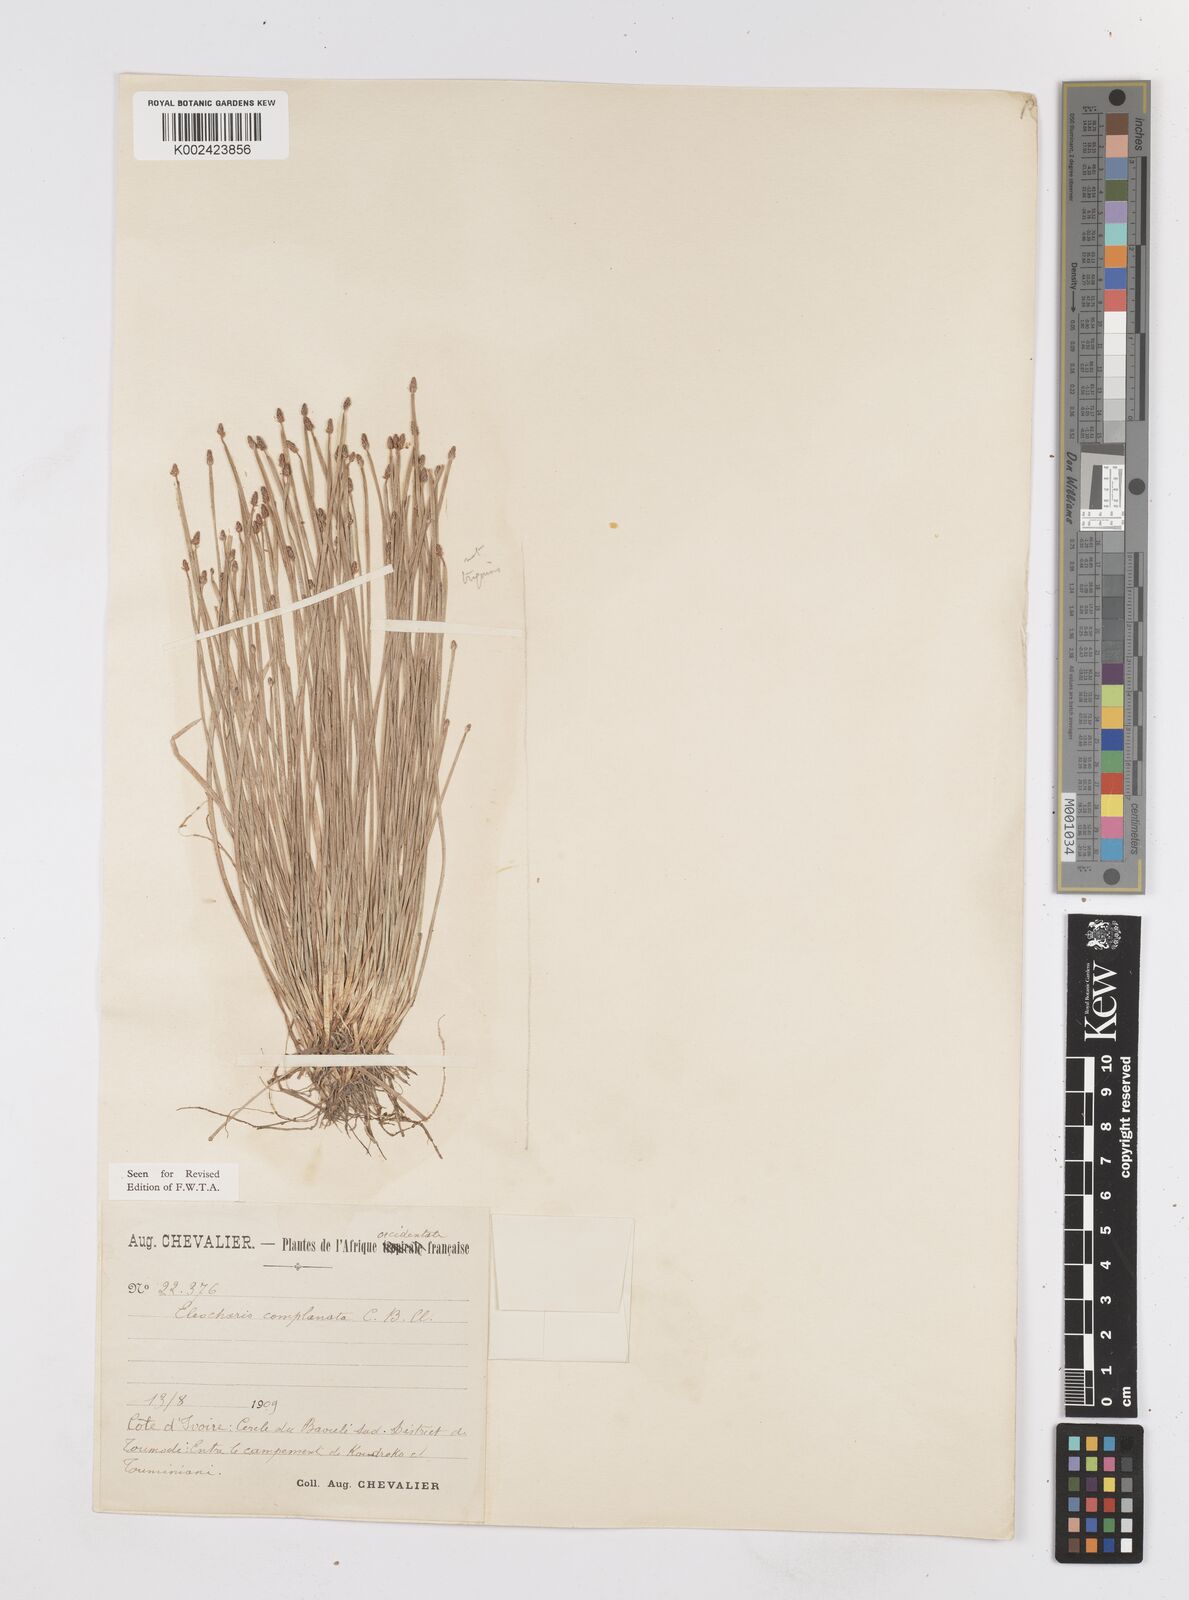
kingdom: Plantae
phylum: Tracheophyta
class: Liliopsida
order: Poales
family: Cyperaceae
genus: Eleocharis
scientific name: Eleocharis complanata
